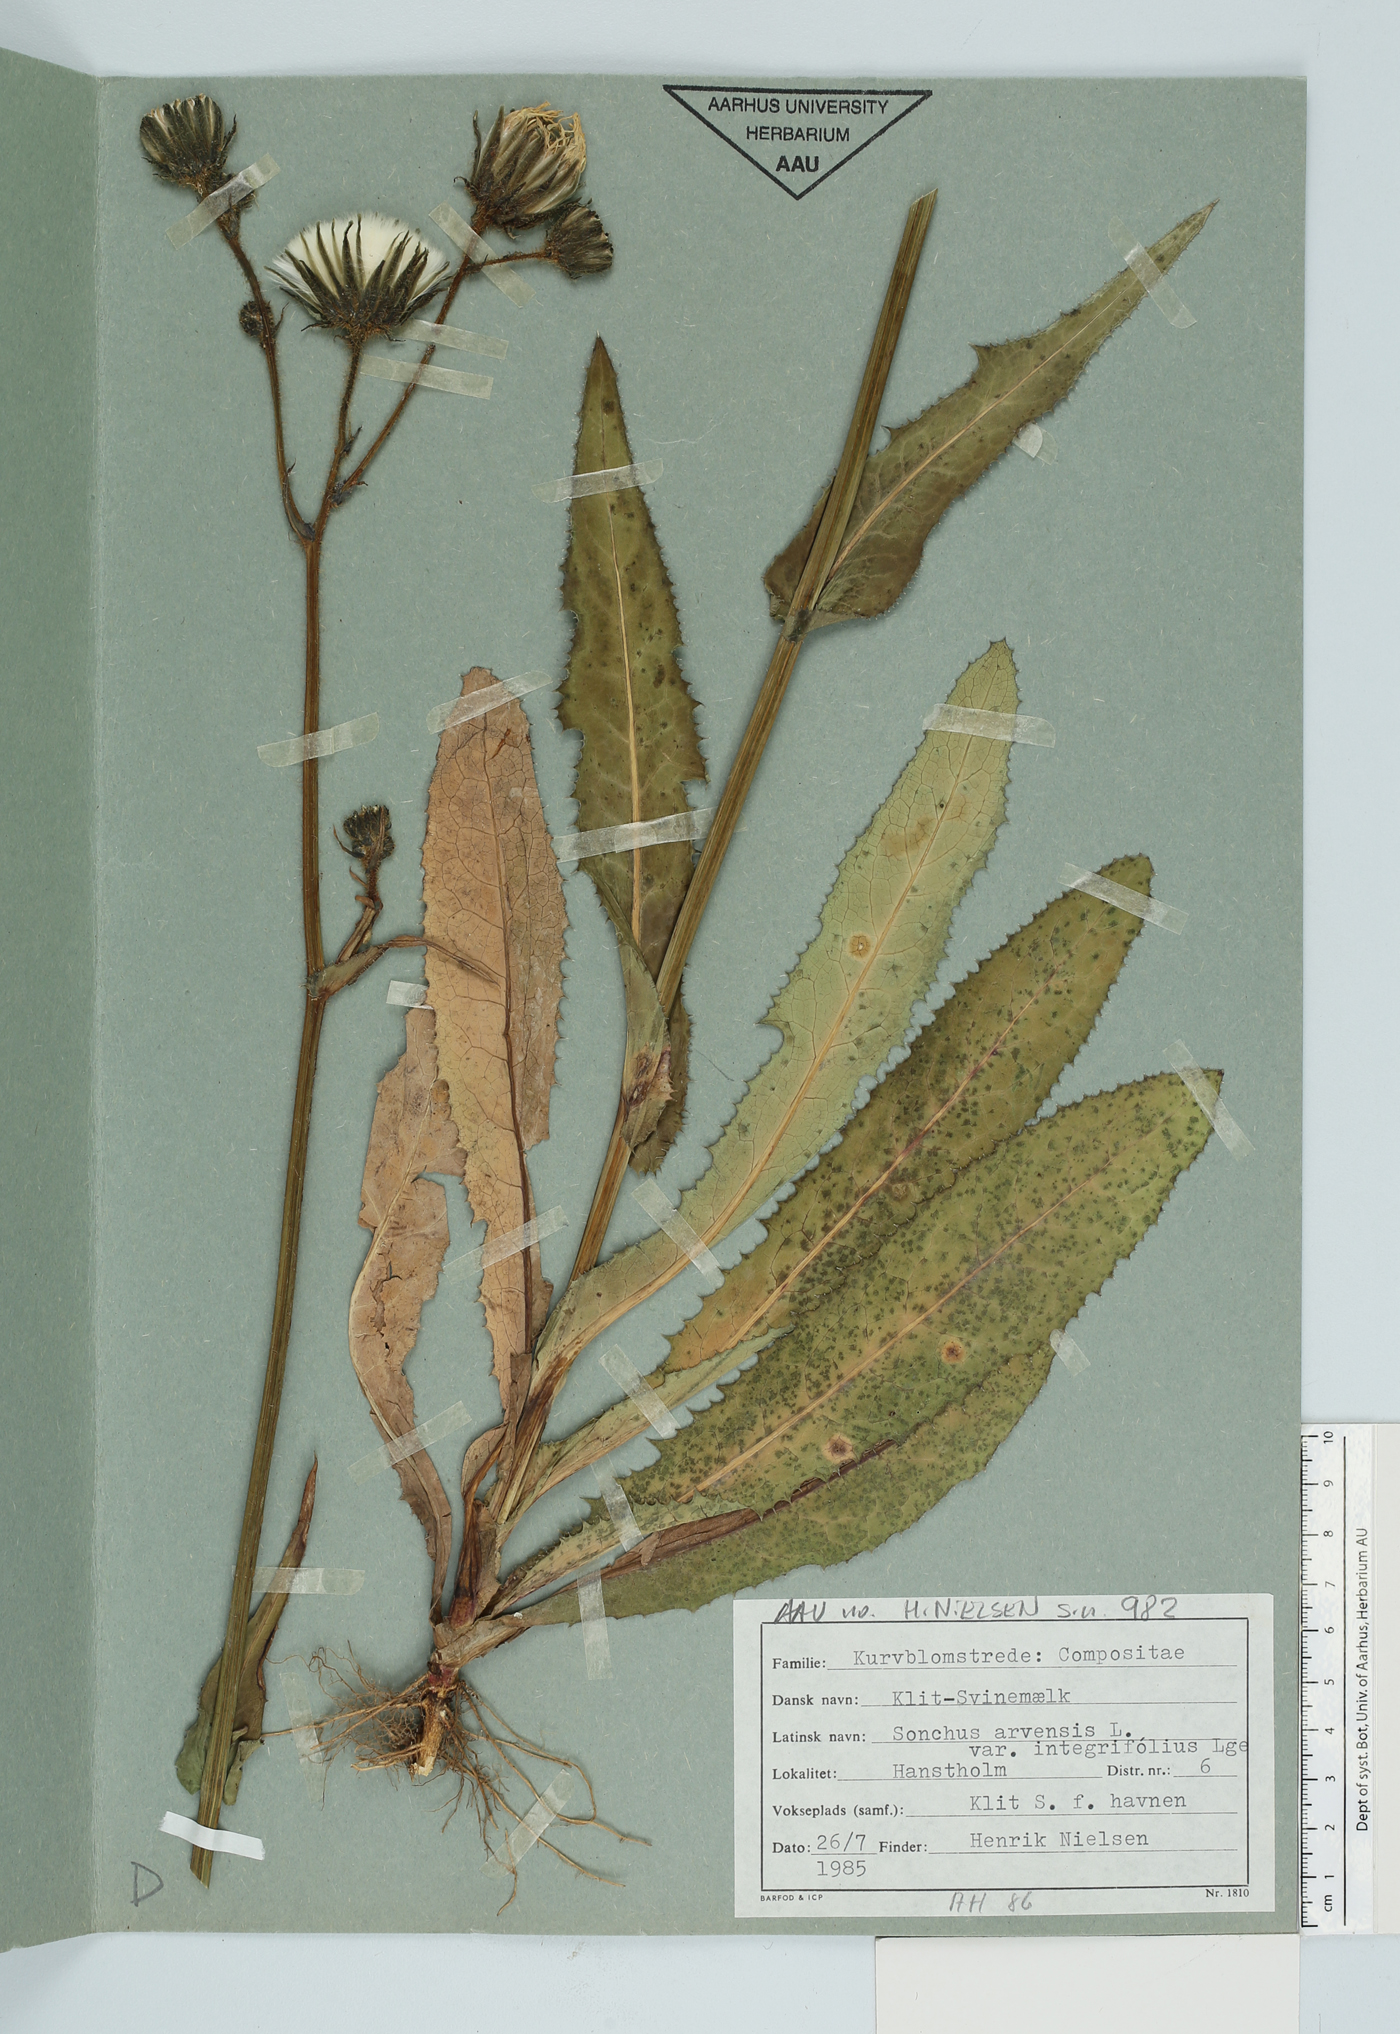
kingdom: Plantae
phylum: Tracheophyta
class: Magnoliopsida
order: Asterales
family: Asteraceae
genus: Sonchus
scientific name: Sonchus arvensis
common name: Perennial sow-thistle
